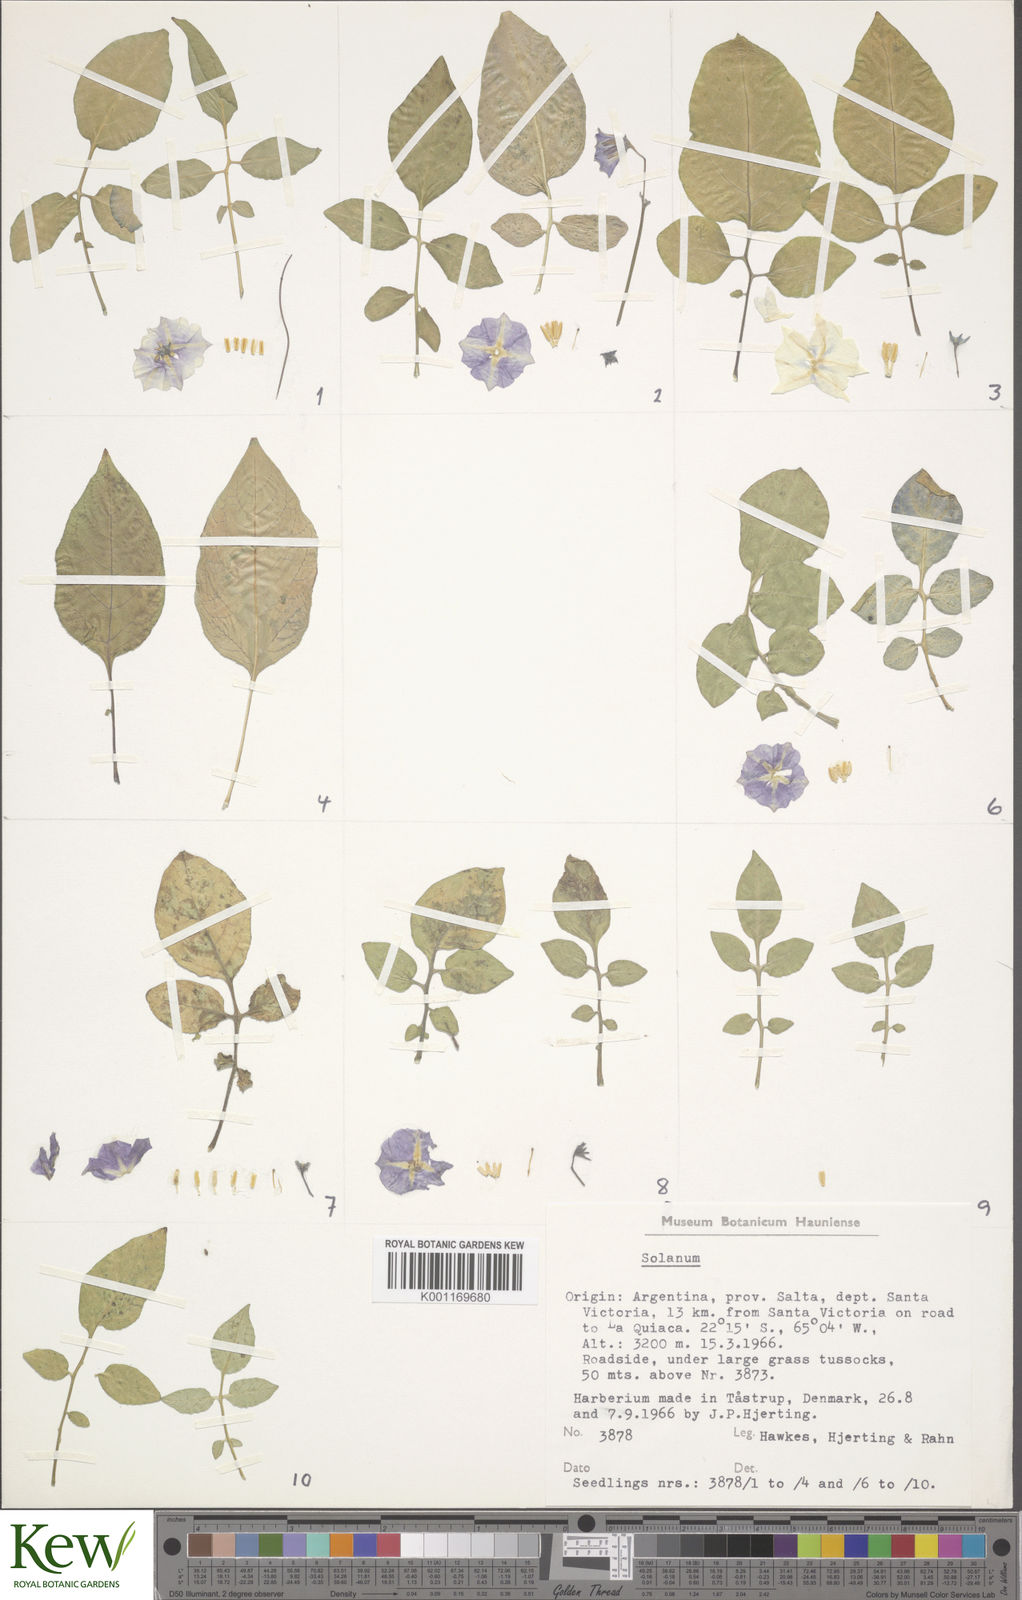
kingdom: Plantae
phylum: Tracheophyta
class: Magnoliopsida
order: Solanales
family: Solanaceae
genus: Solanum
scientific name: Solanum neorossii
